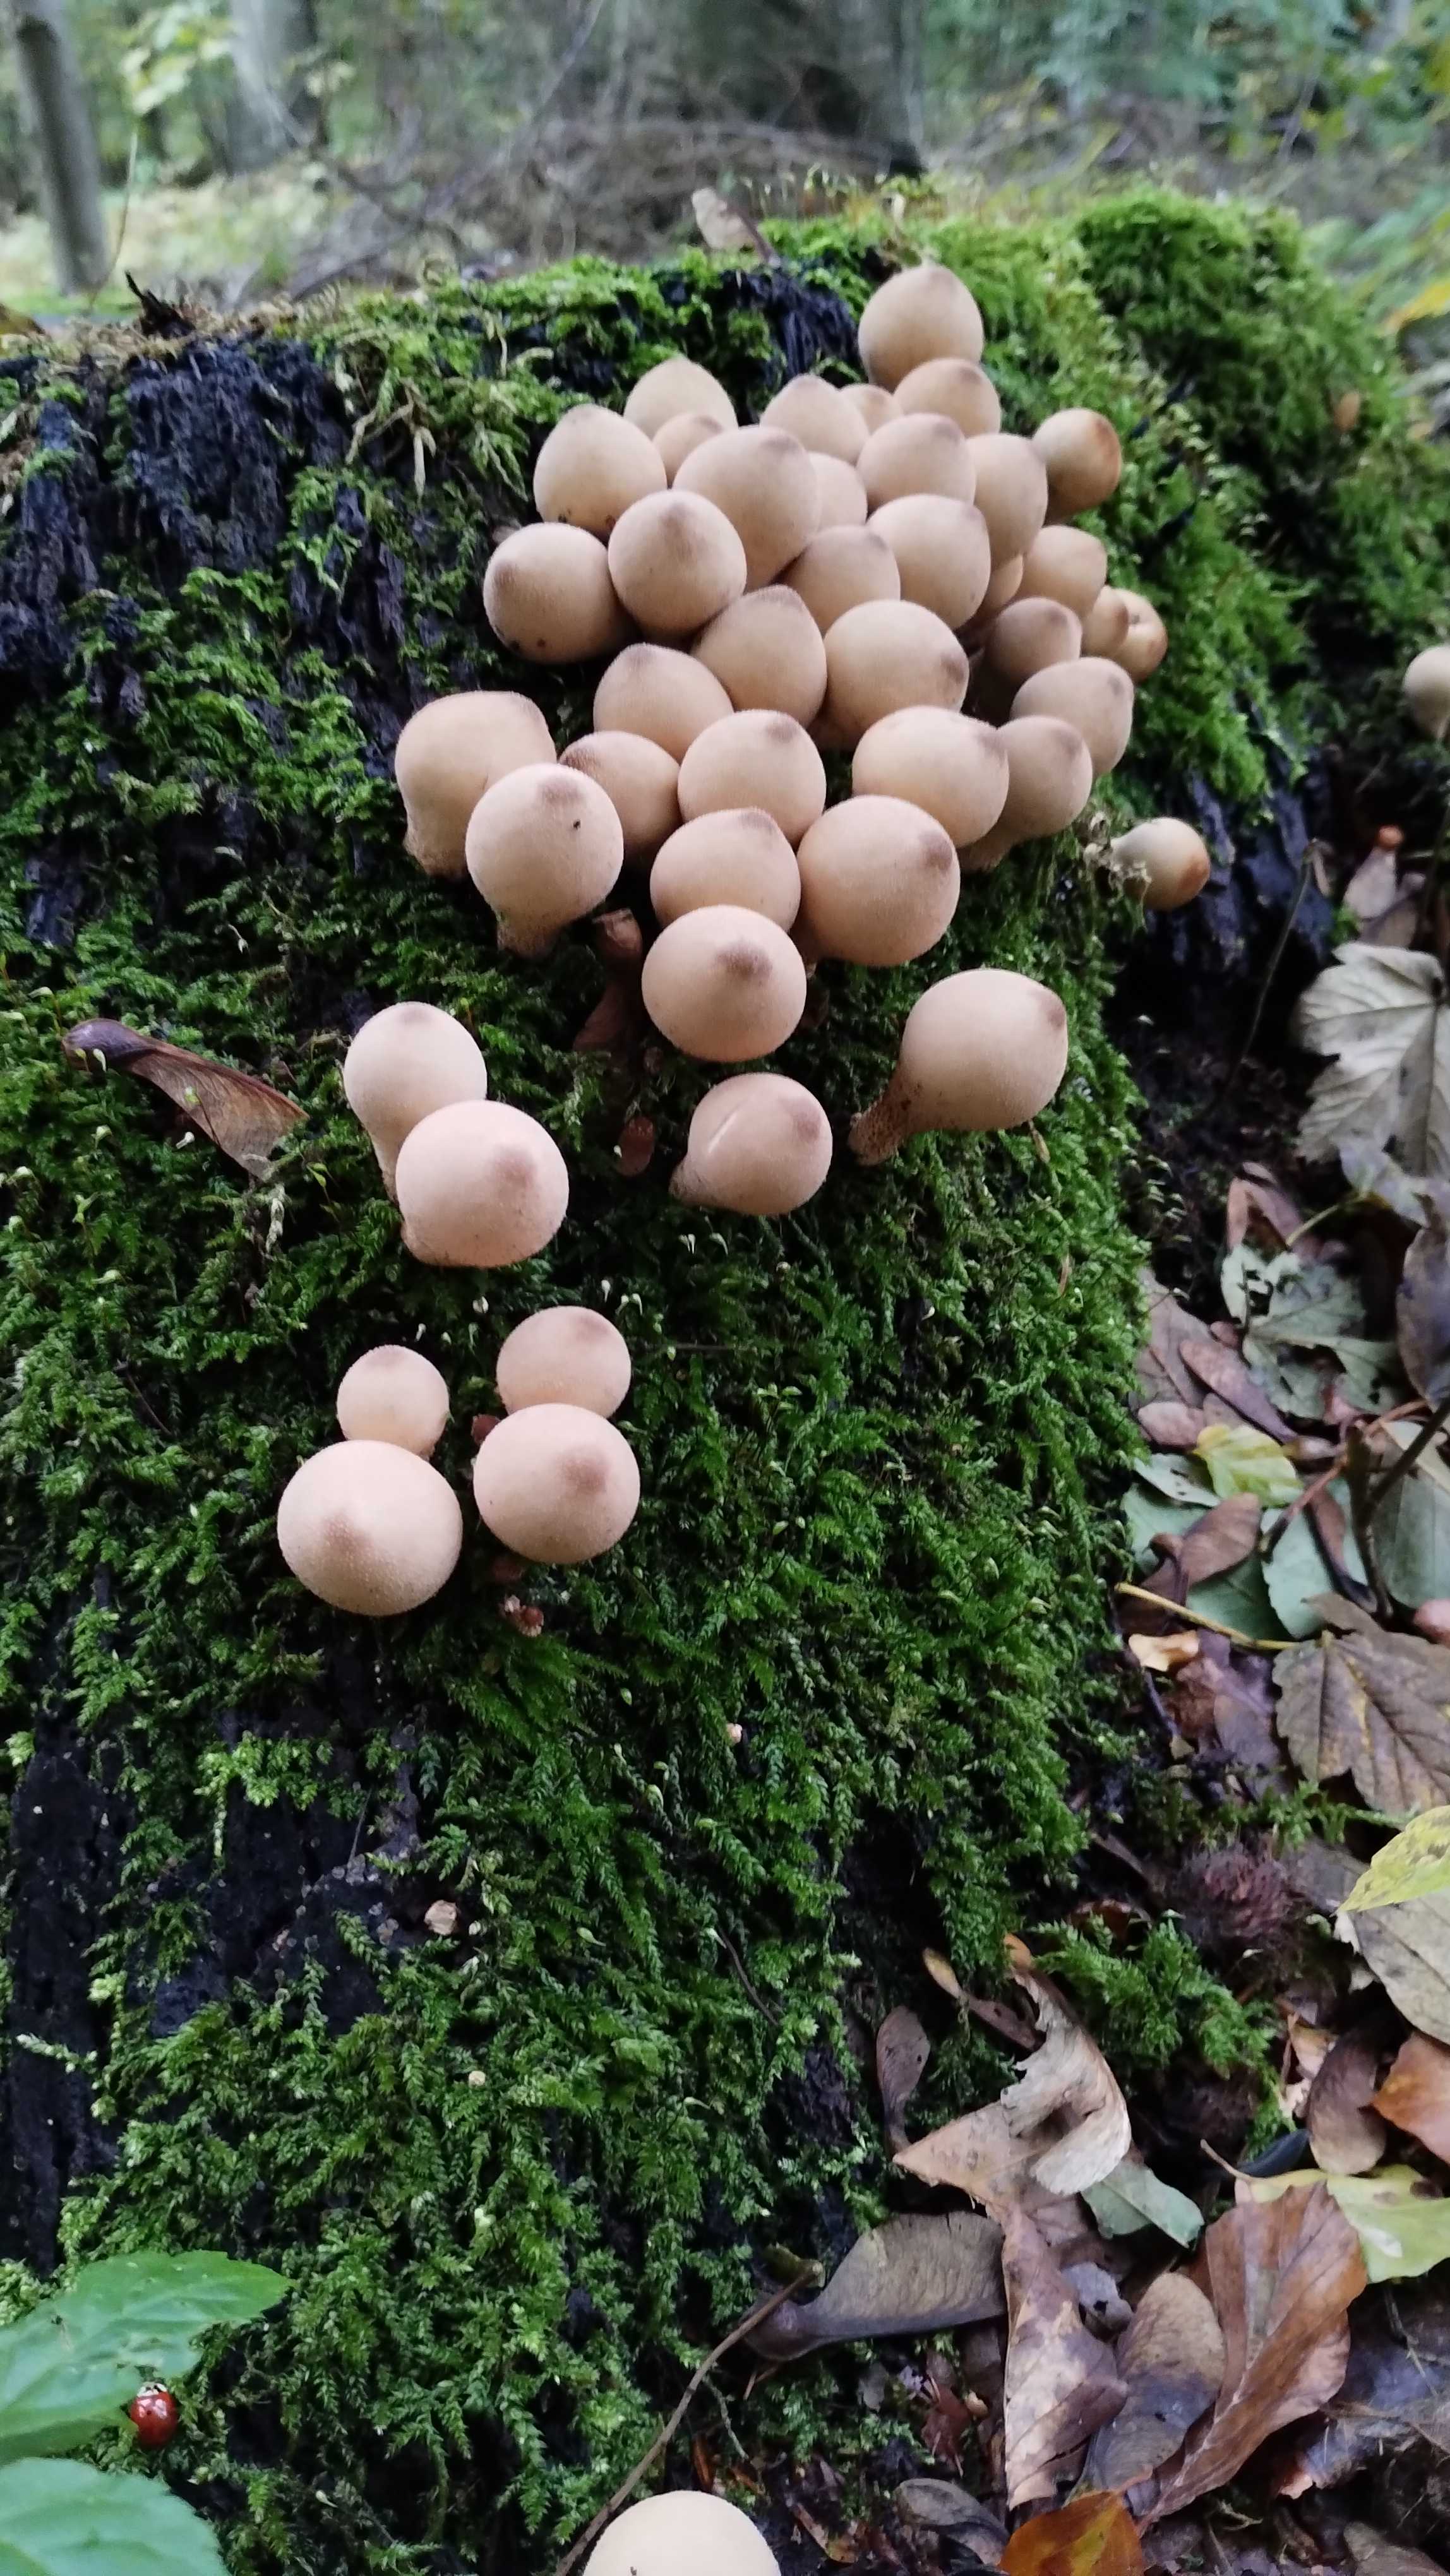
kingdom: Fungi
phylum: Basidiomycota
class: Agaricomycetes
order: Agaricales
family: Lycoperdaceae
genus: Apioperdon
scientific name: Apioperdon pyriforme
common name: pære-støvbold
